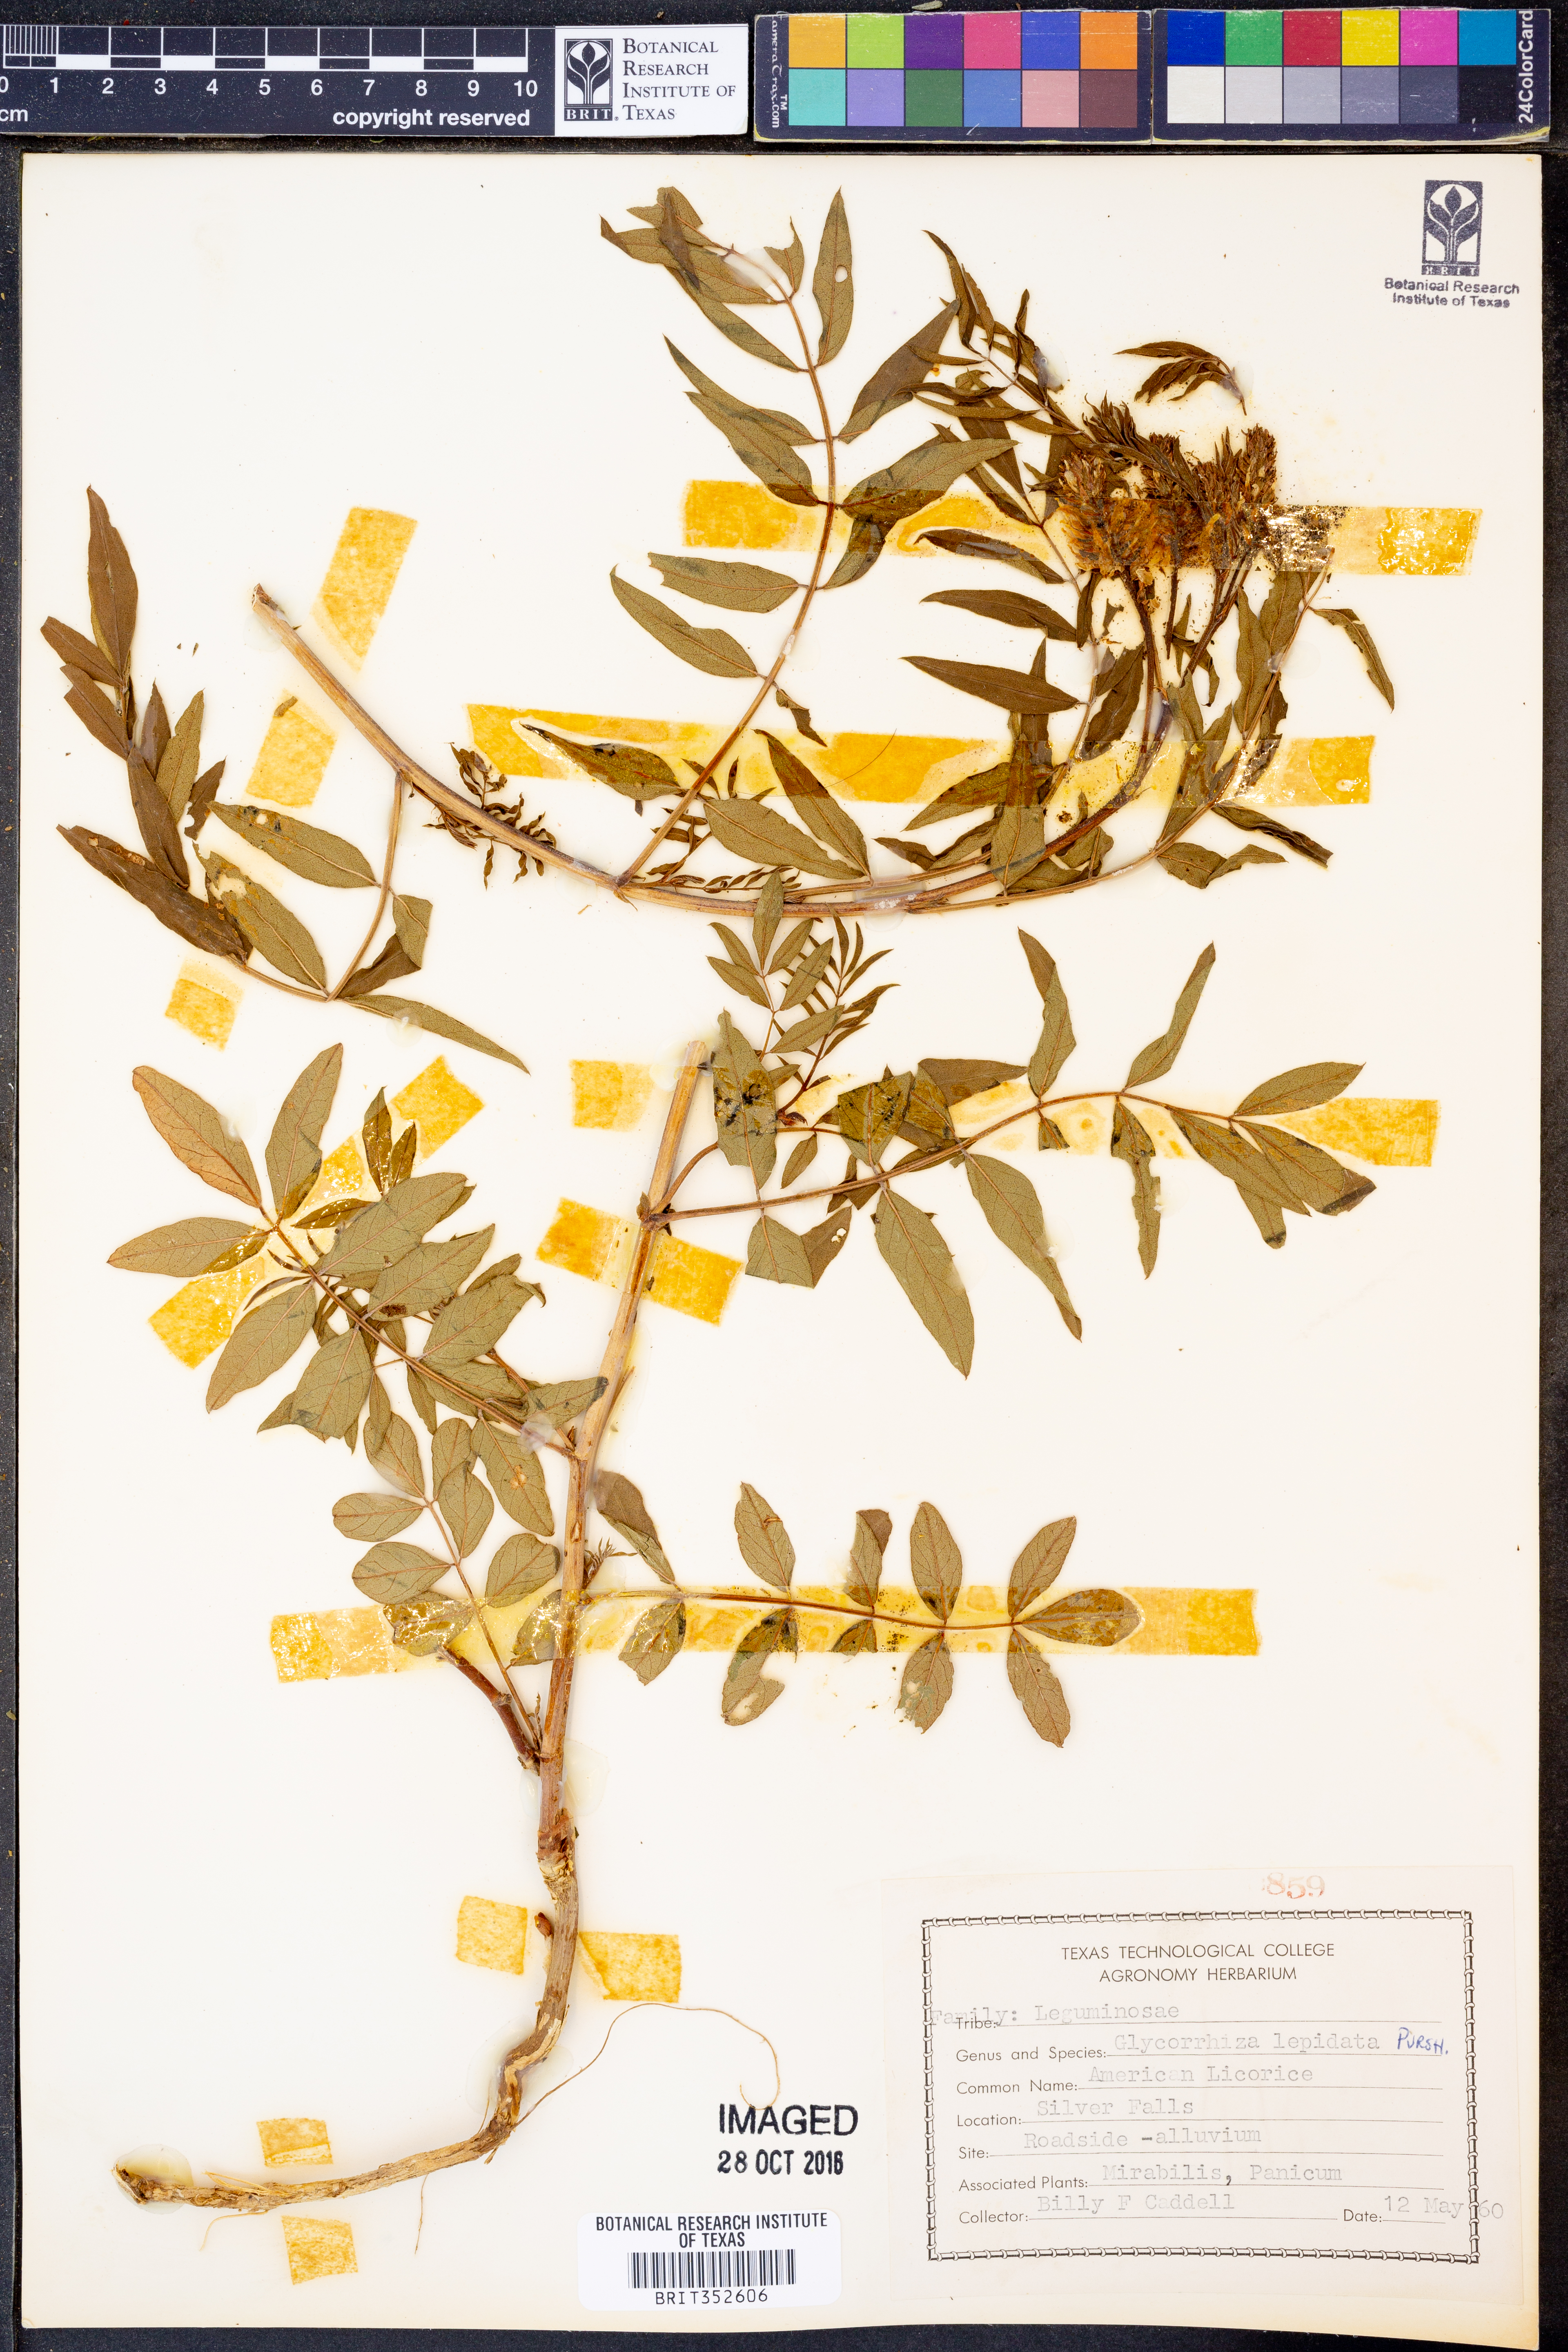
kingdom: Plantae
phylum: Tracheophyta
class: Magnoliopsida
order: Fabales
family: Fabaceae
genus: Glycyrrhiza
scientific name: Glycyrrhiza lepidota
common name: American liquorice
